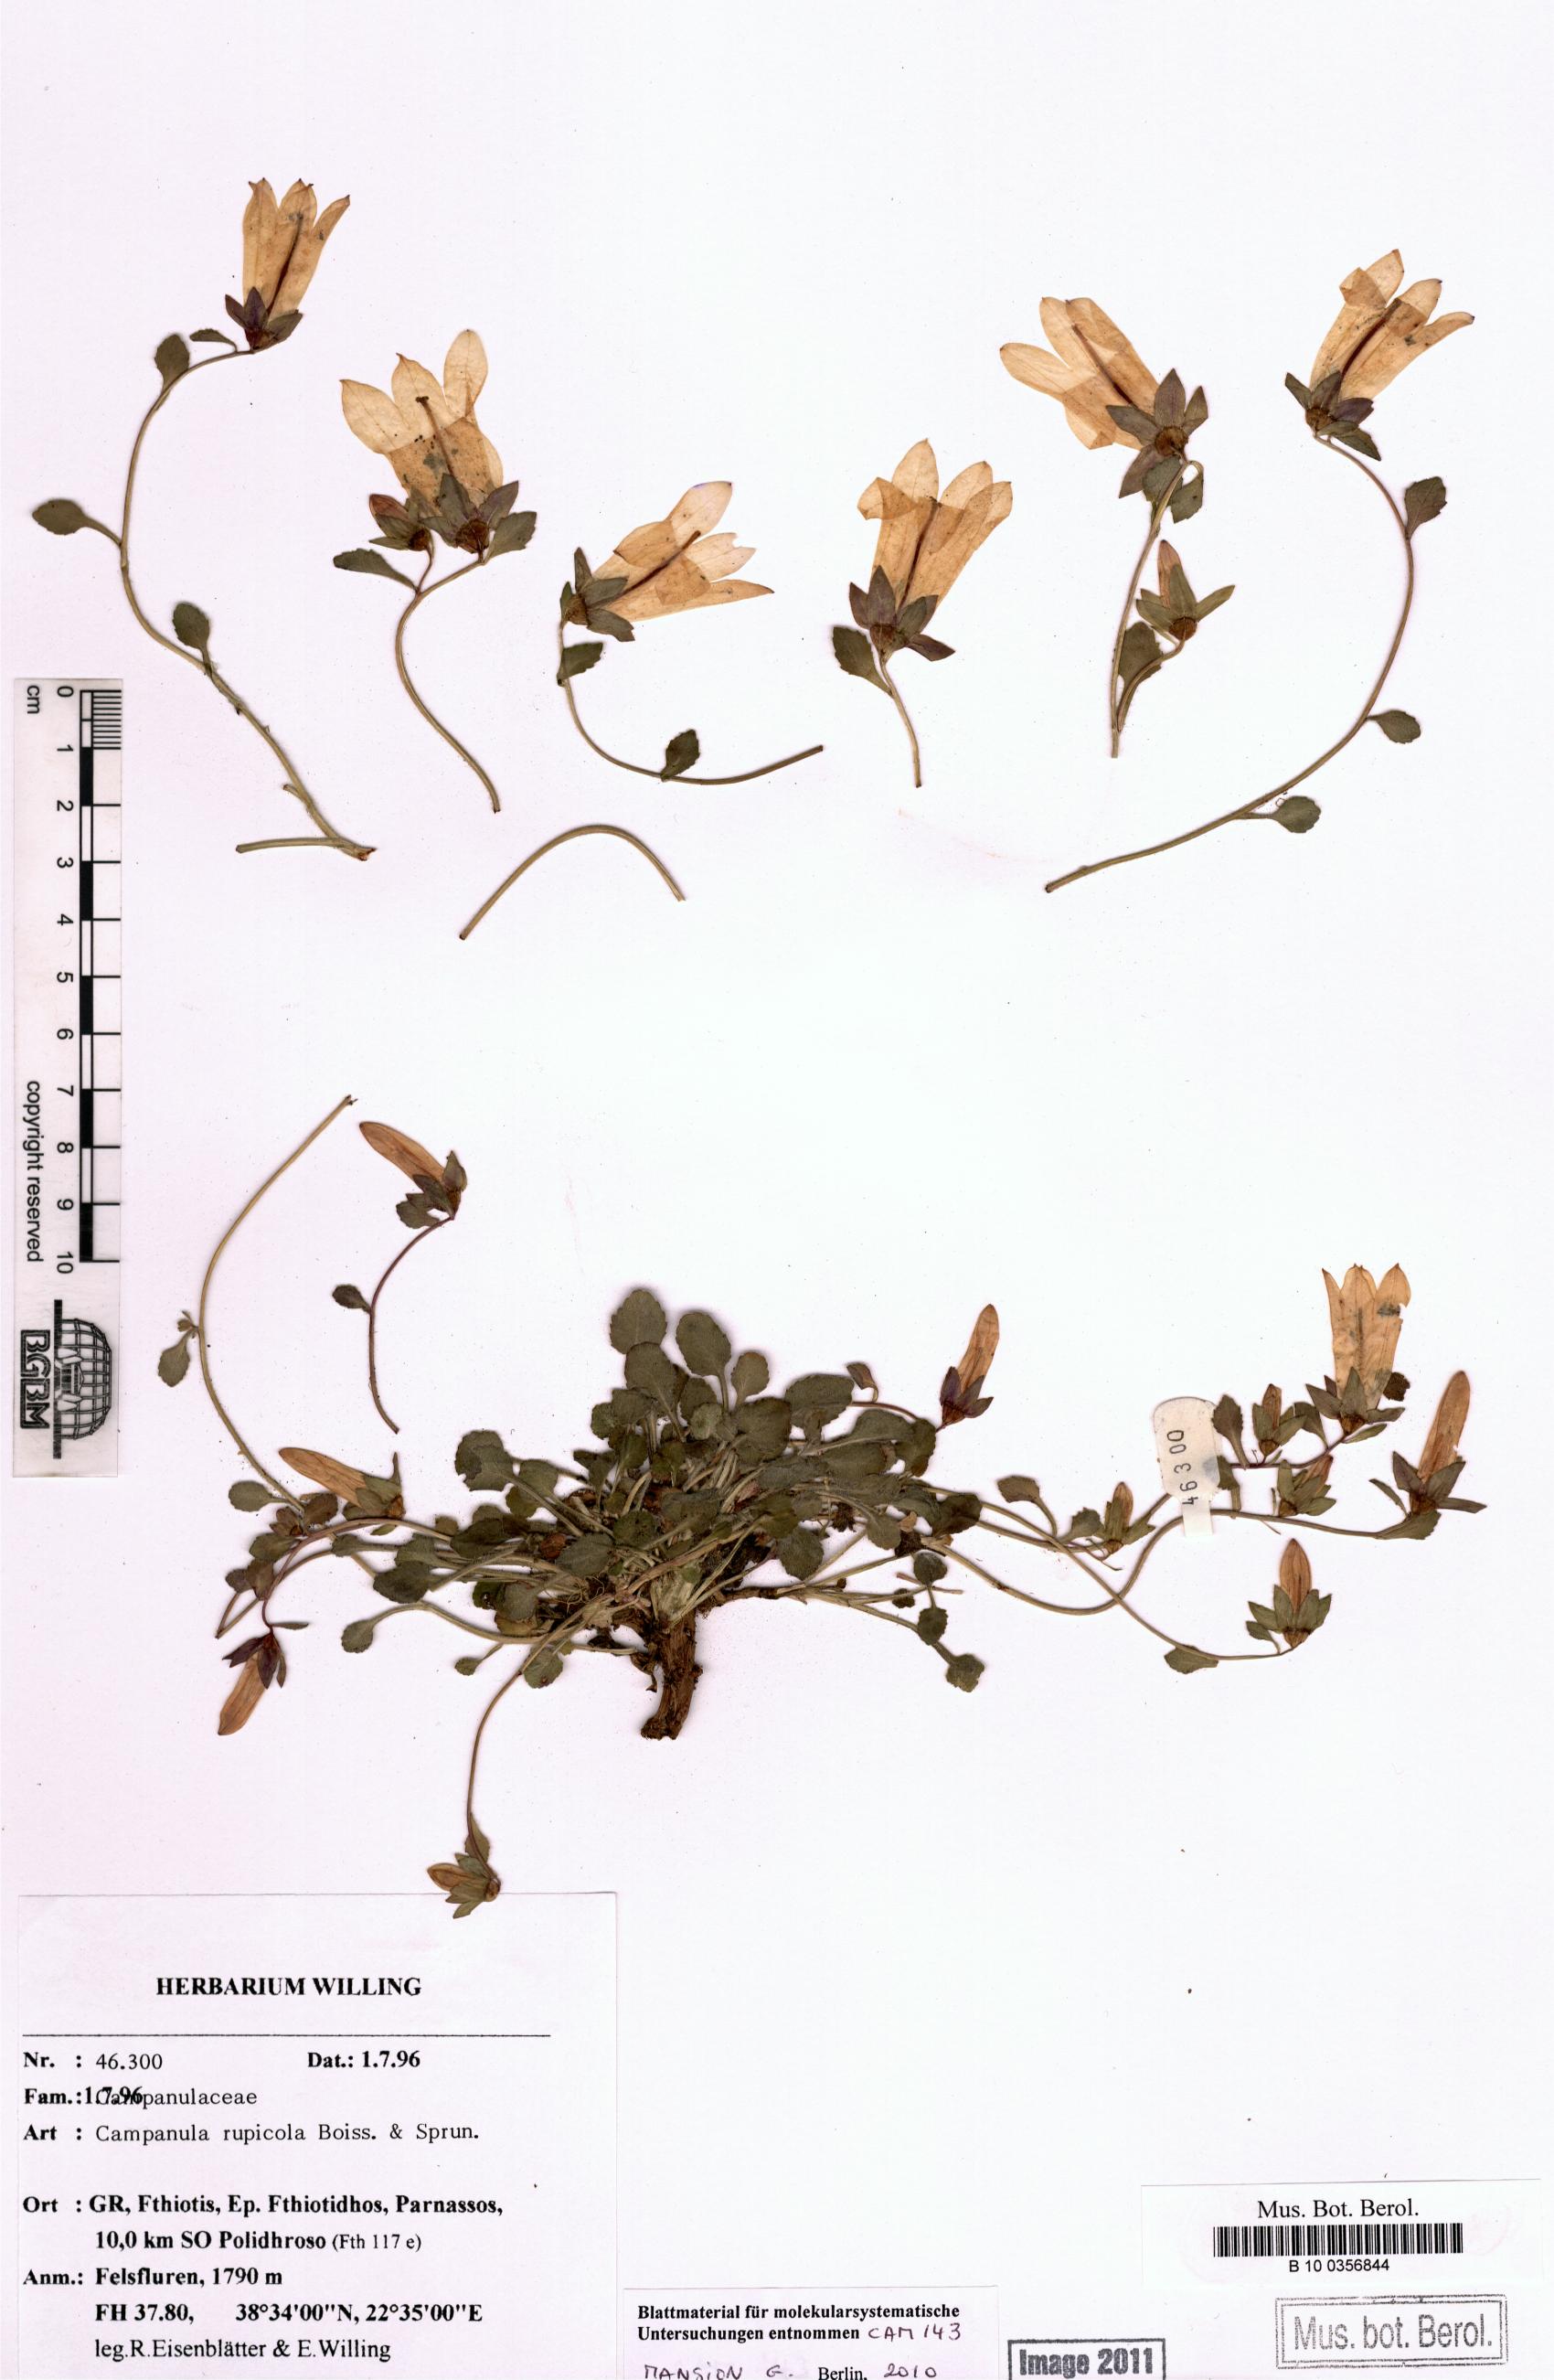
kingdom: Plantae
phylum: Tracheophyta
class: Magnoliopsida
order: Asterales
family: Campanulaceae
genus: Campanula
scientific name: Campanula rupicola
